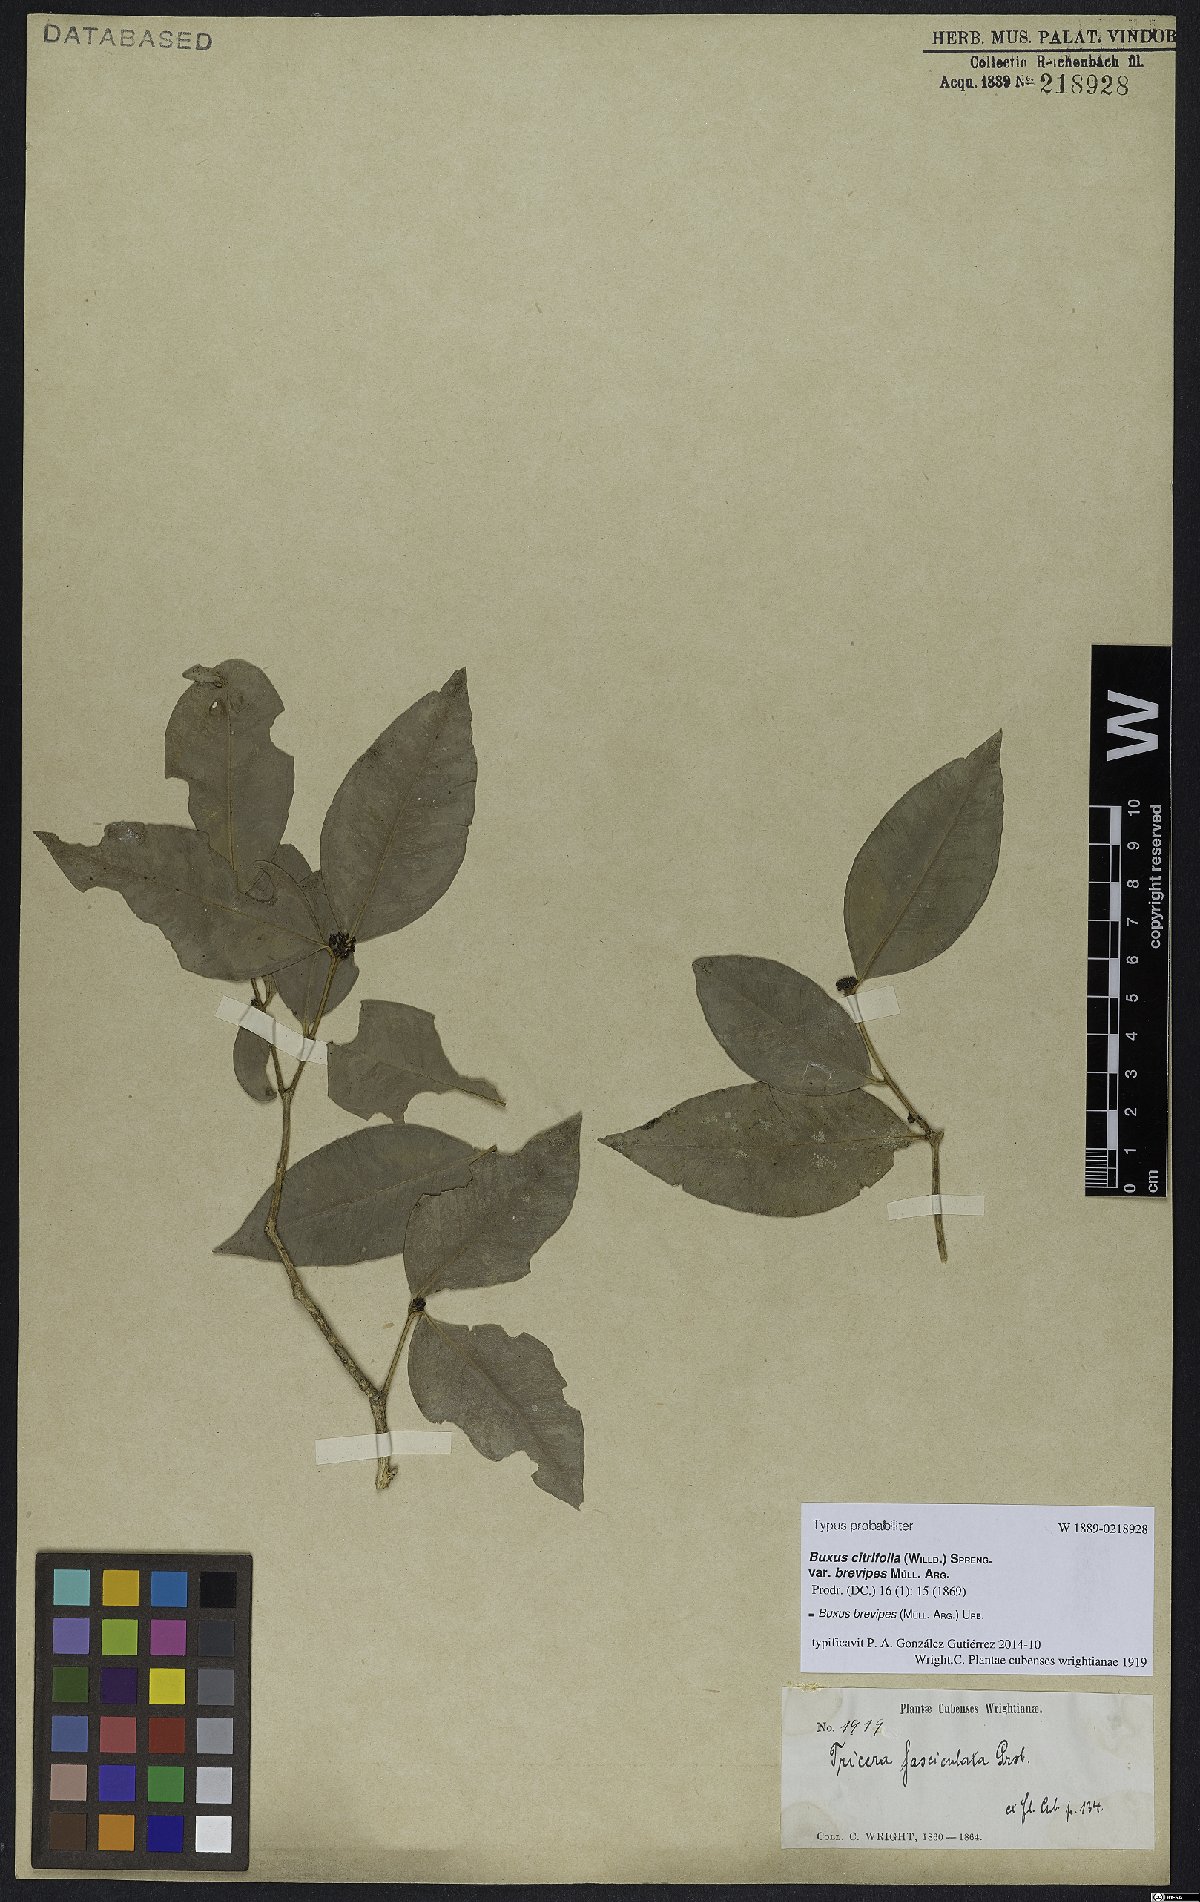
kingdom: Plantae
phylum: Tracheophyta
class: Magnoliopsida
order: Buxales
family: Buxaceae
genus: Buxus
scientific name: Buxus brevipes
